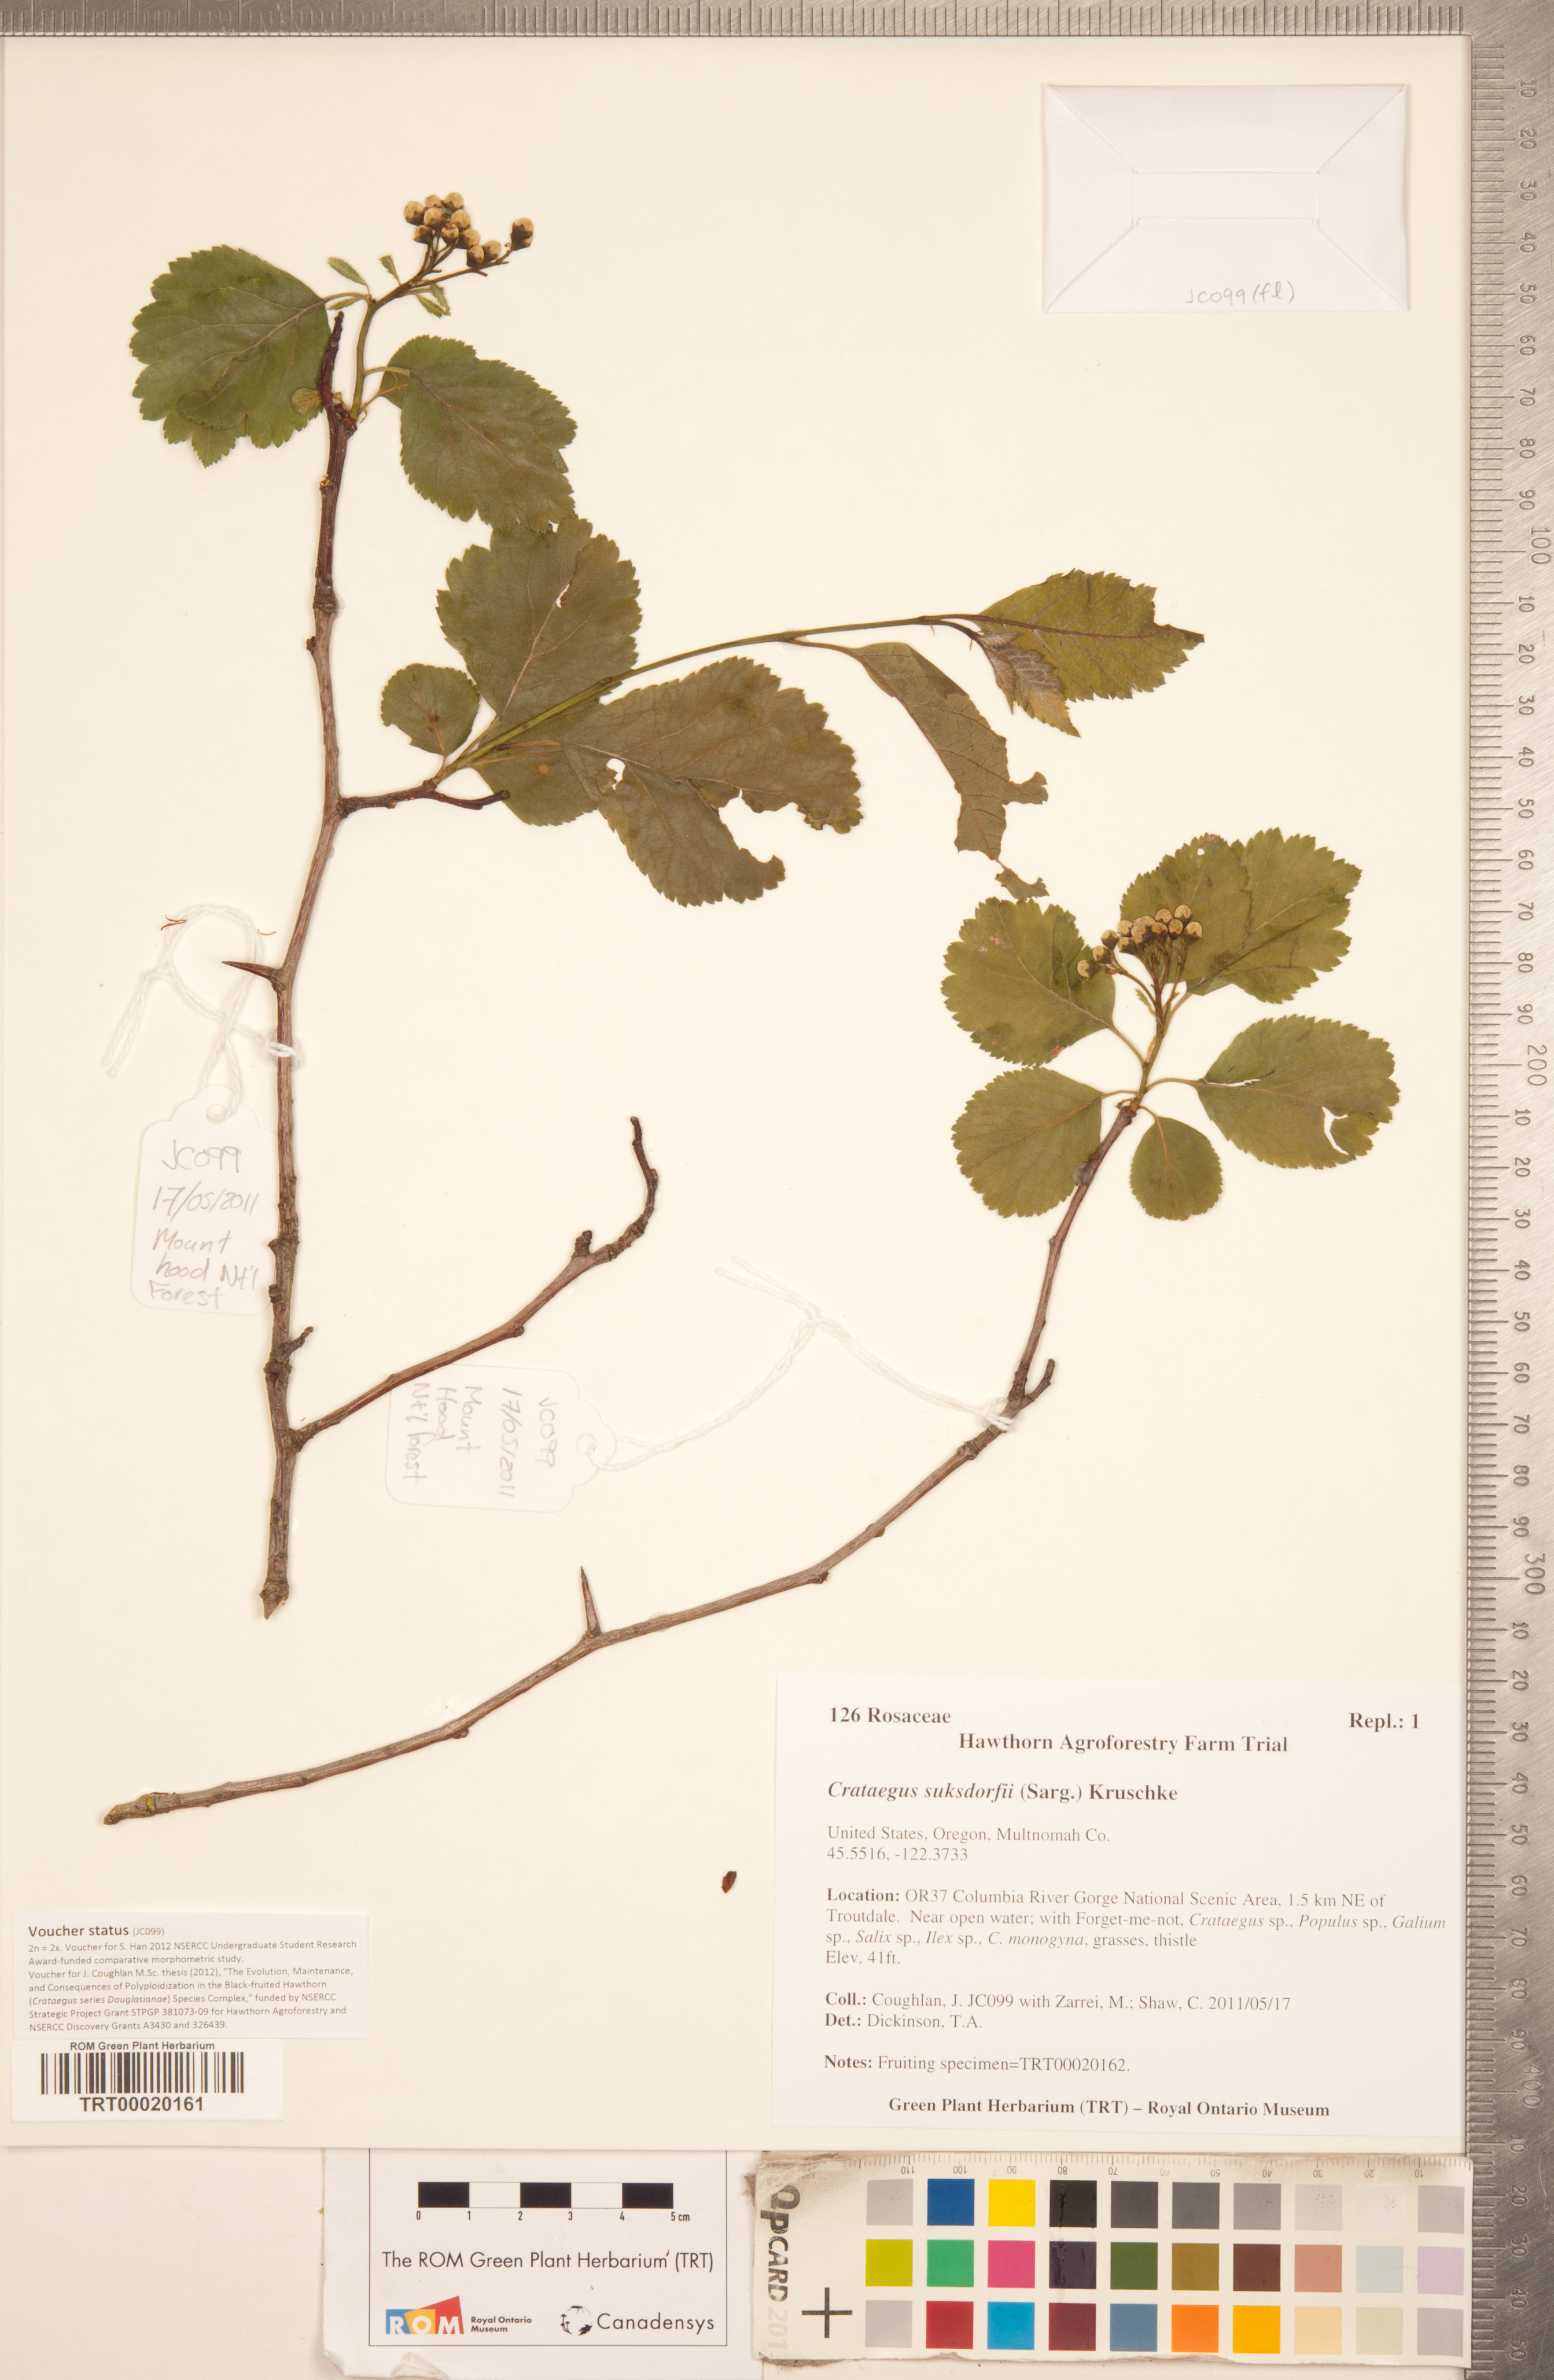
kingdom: Plantae
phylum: Tracheophyta
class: Magnoliopsida
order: Rosales
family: Rosaceae
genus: Crataegus
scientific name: Crataegus gaylussacia
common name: Huckleberry hawthorn
